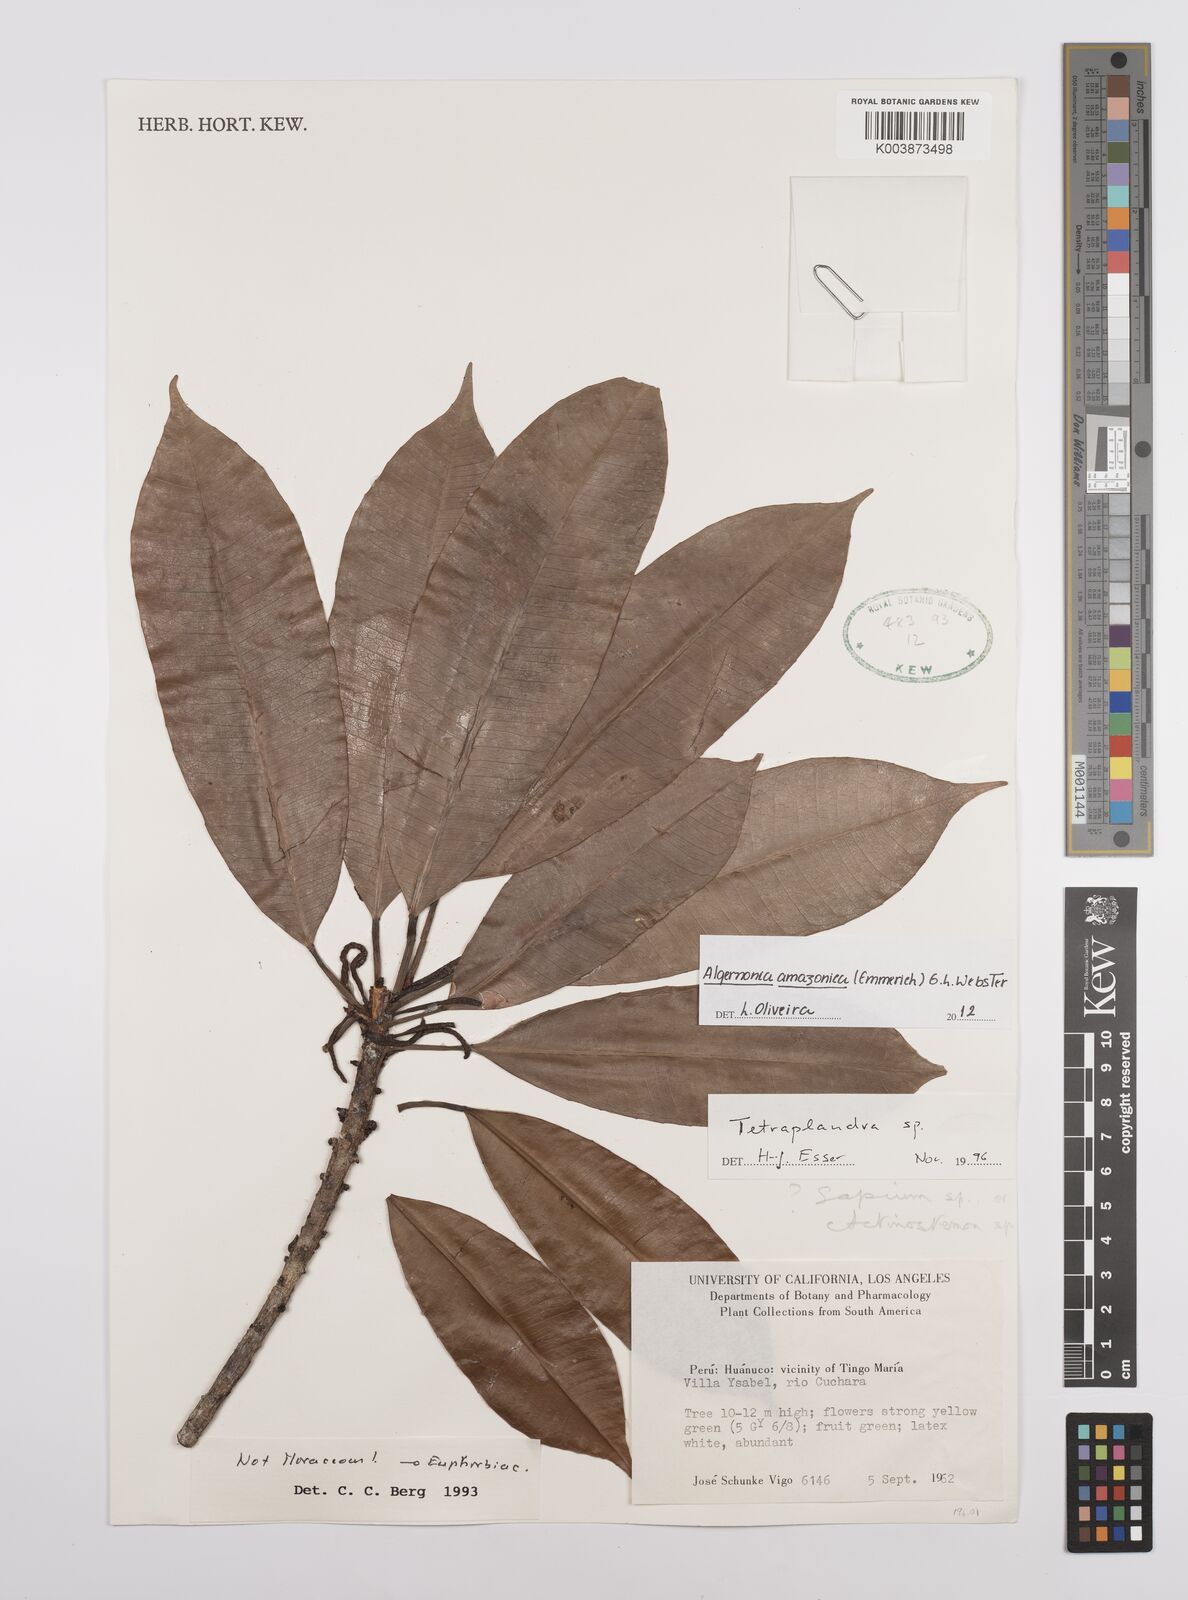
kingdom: Plantae
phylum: Tracheophyta
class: Magnoliopsida
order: Malpighiales
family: Euphorbiaceae
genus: Algernonia
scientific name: Algernonia amazonica
